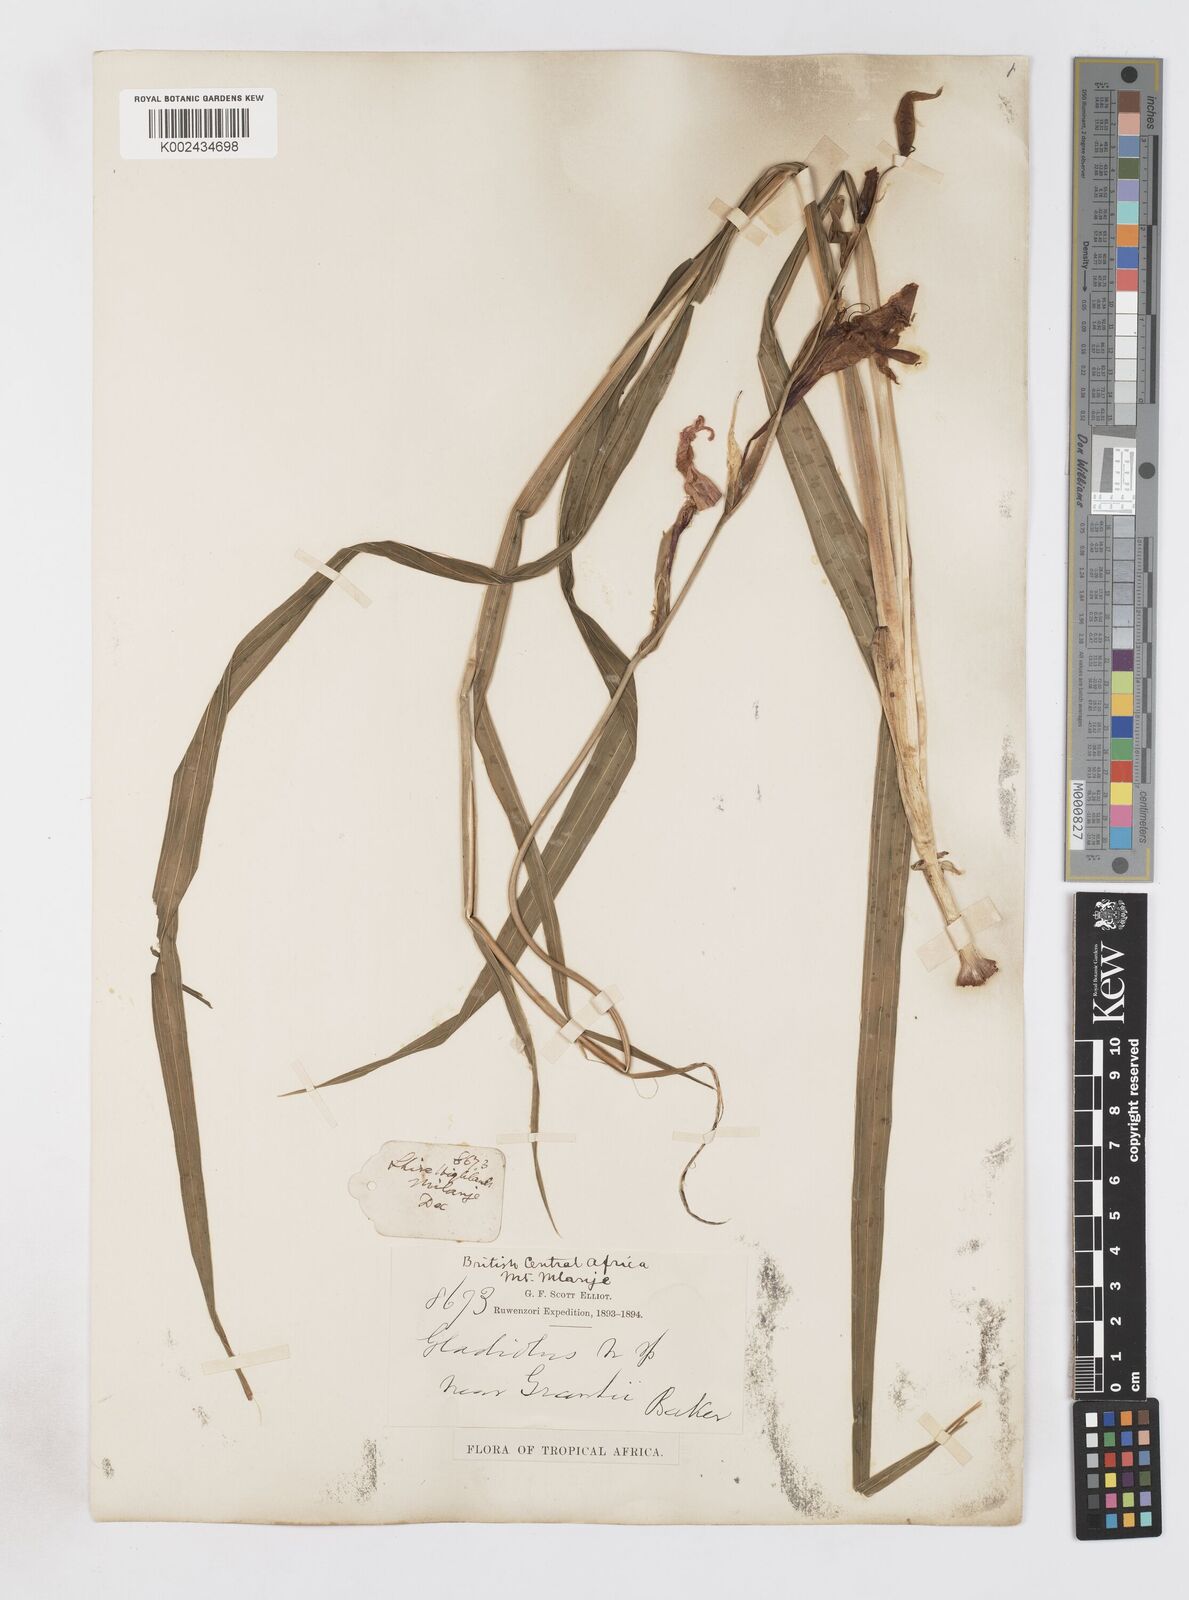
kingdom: Plantae
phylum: Tracheophyta
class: Liliopsida
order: Asparagales
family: Iridaceae
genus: Gladiolus
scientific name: Gladiolus decoratus
